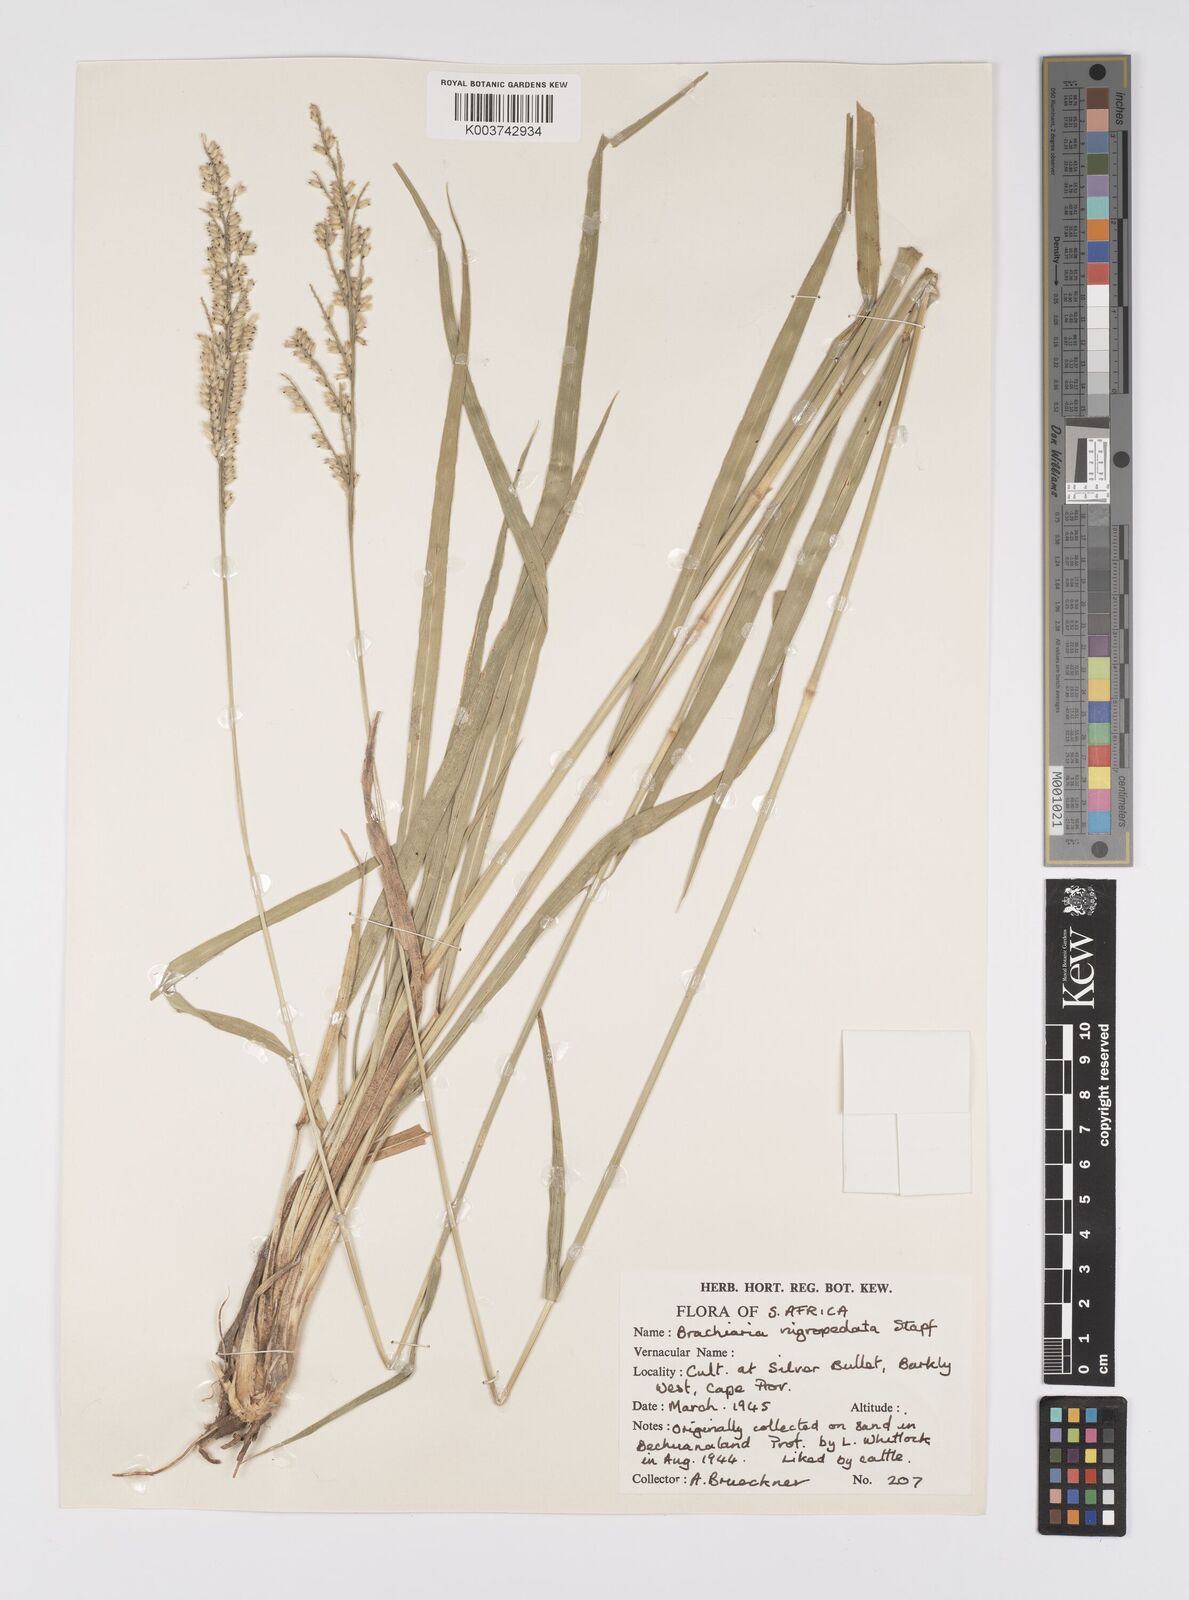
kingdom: Plantae
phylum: Tracheophyta
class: Liliopsida
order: Poales
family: Poaceae
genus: Urochloa
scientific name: Urochloa nigropedata
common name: Spotted signal grass
